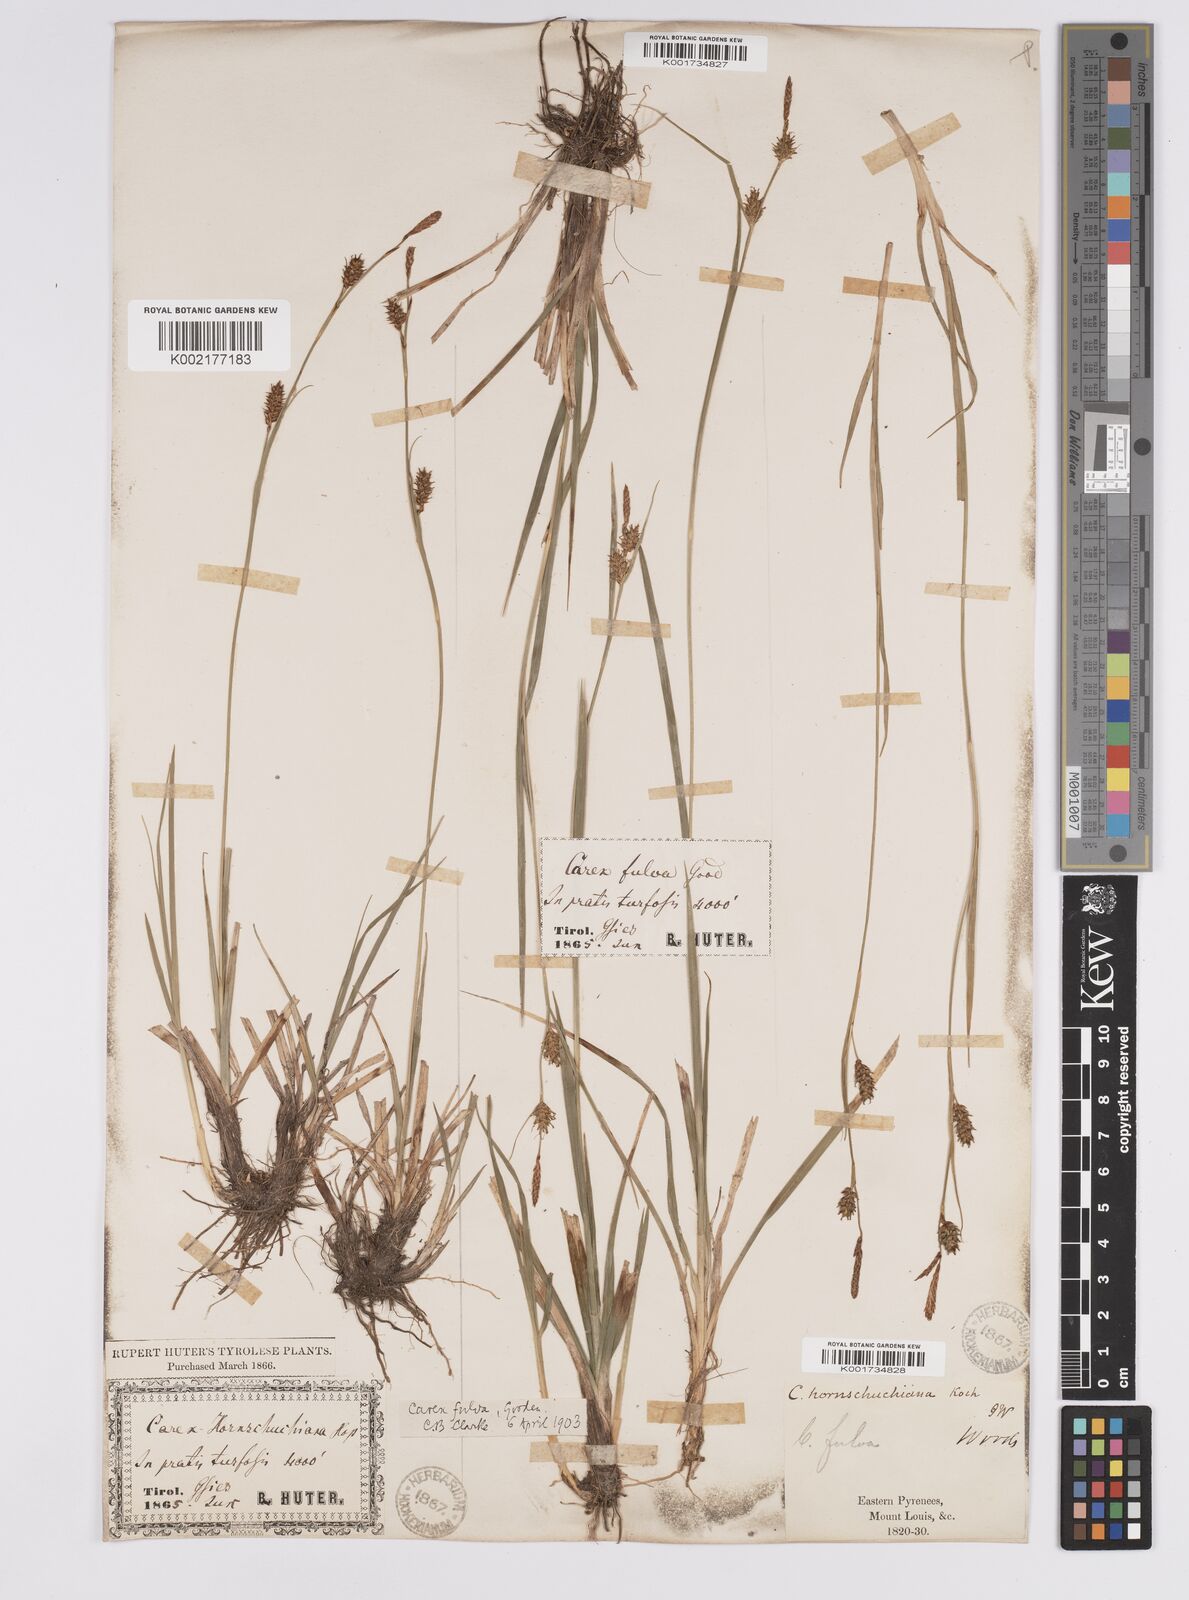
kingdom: Plantae
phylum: Tracheophyta
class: Liliopsida
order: Poales
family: Cyperaceae
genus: Carex
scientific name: Carex hostiana
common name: Tawny sedge
